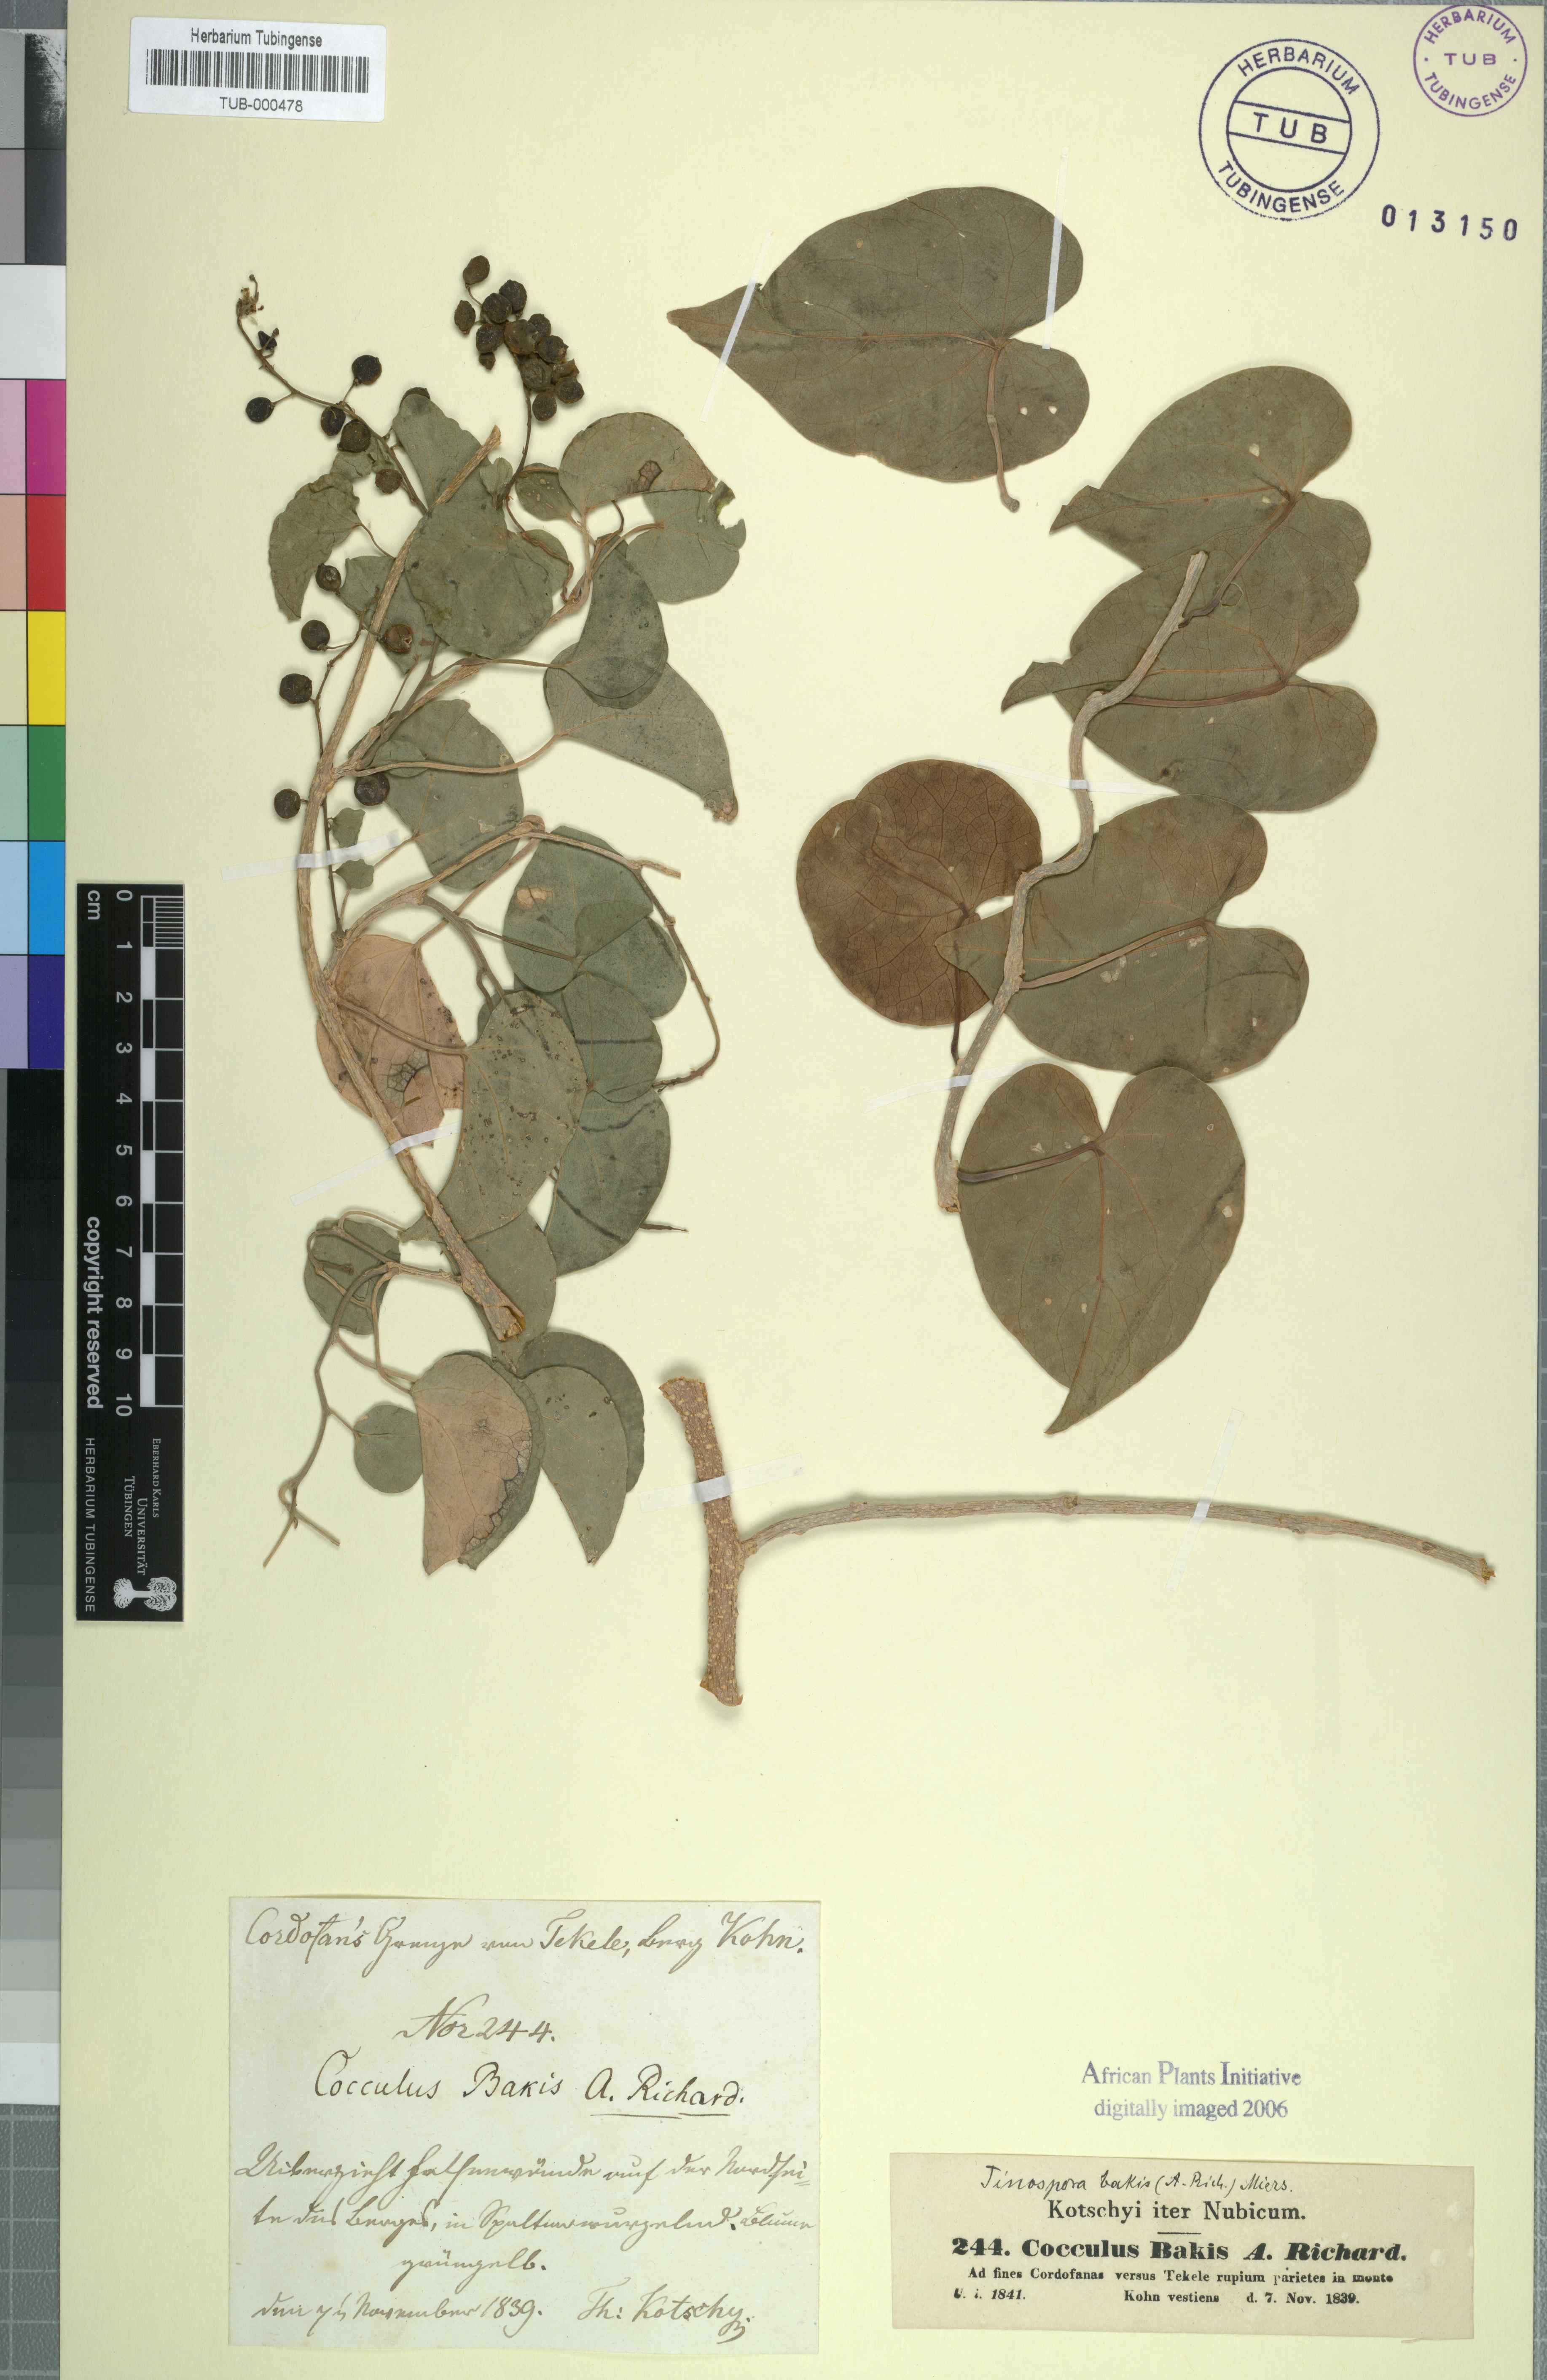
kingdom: Plantae
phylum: Tracheophyta
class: Magnoliopsida
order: Ranunculales
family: Menispermaceae
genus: Tinospora
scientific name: Tinospora bakis
